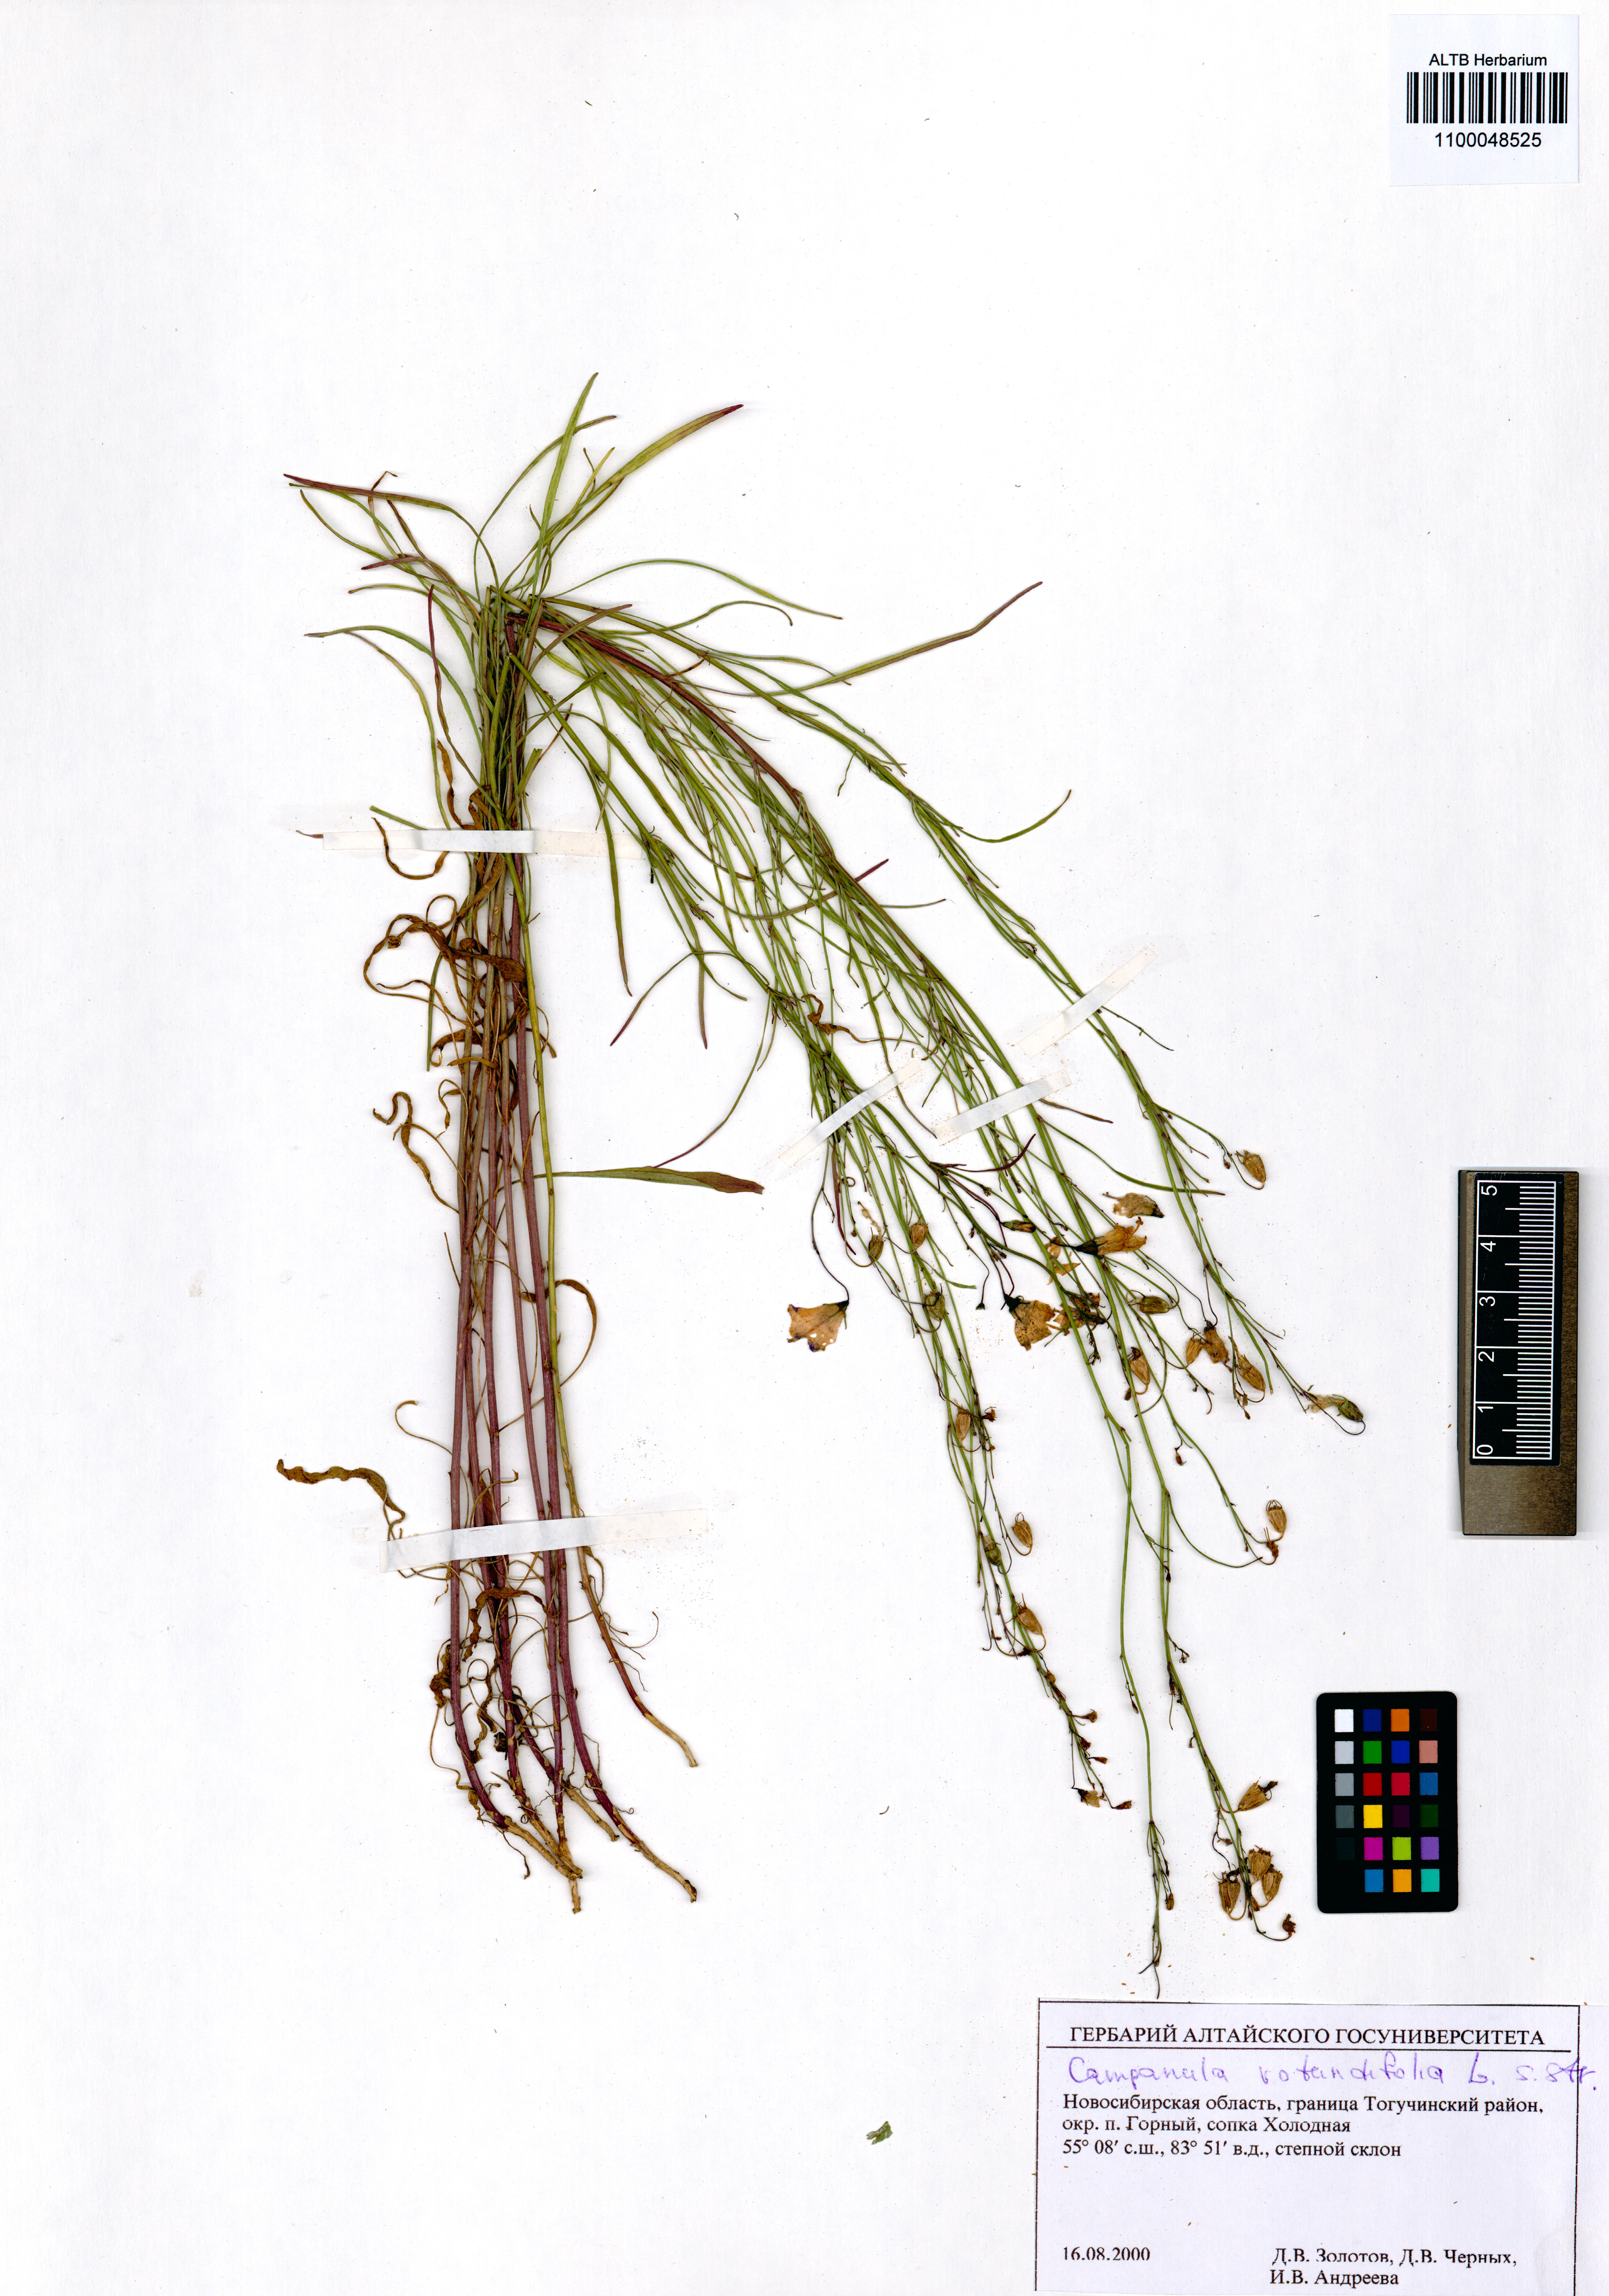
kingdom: Plantae
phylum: Tracheophyta
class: Magnoliopsida
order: Asterales
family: Campanulaceae
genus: Campanula
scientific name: Campanula rotundifolia
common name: Harebell
